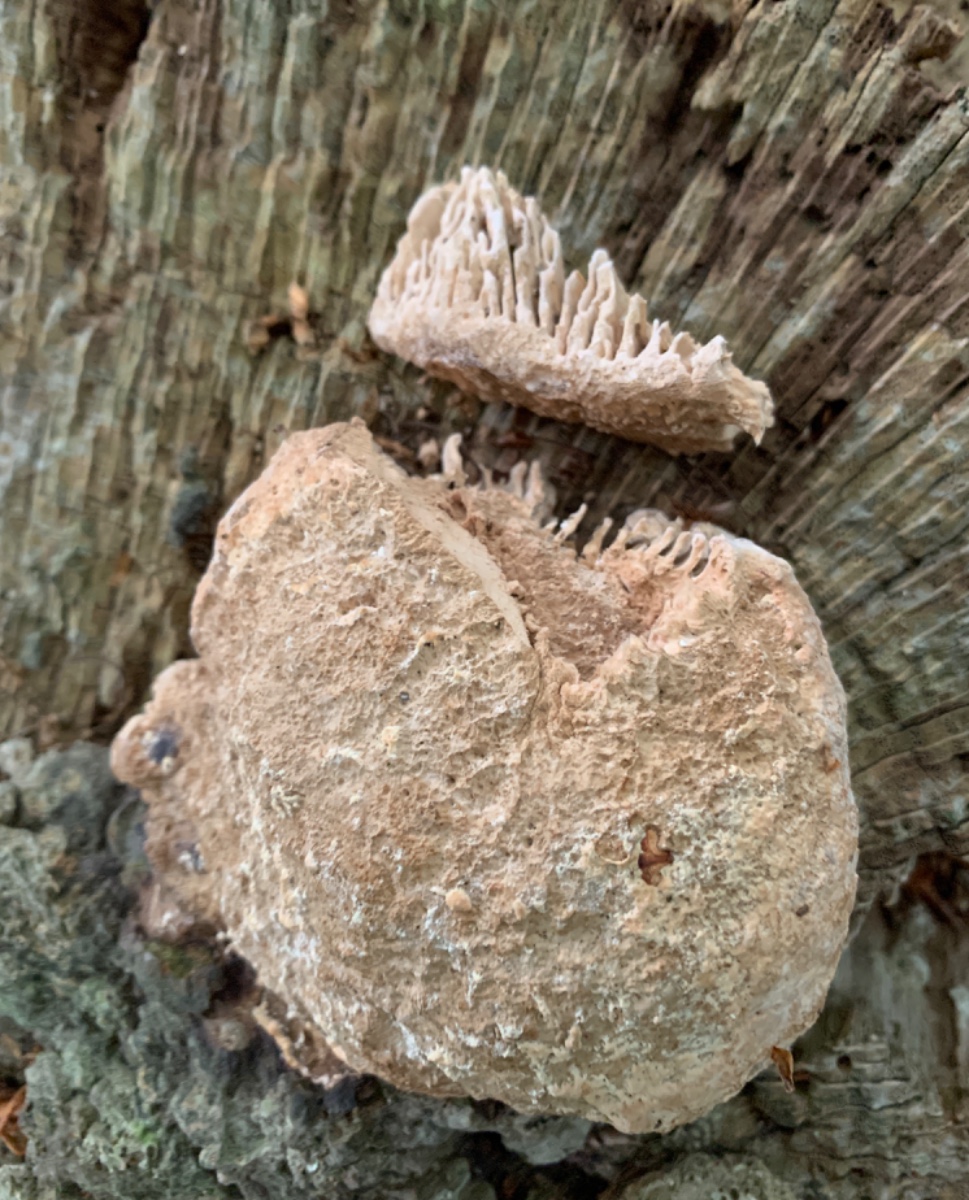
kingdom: Fungi
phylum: Basidiomycota
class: Agaricomycetes
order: Polyporales
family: Fomitopsidaceae
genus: Daedalea
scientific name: Daedalea quercina
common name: ege-labyrintsvamp
